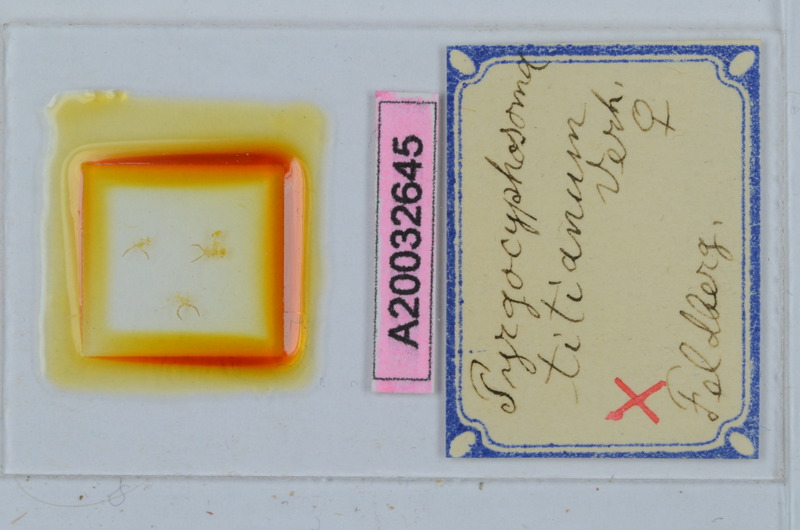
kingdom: Animalia
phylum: Arthropoda
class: Diplopoda
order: Chordeumatida
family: Craspedosomatidae
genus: Pyrgocyphosoma
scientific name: Pyrgocyphosoma titianum
